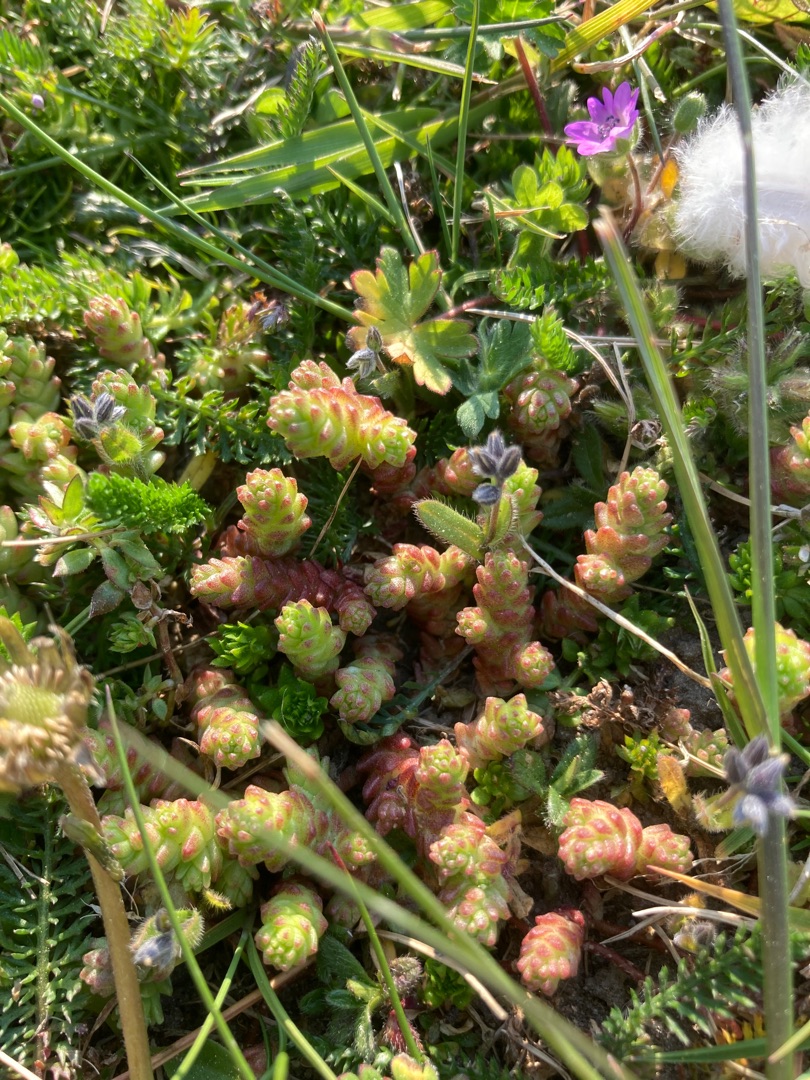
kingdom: Plantae
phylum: Tracheophyta
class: Magnoliopsida
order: Saxifragales
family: Crassulaceae
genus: Sedum
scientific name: Sedum acre
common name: Bidende stenurt
